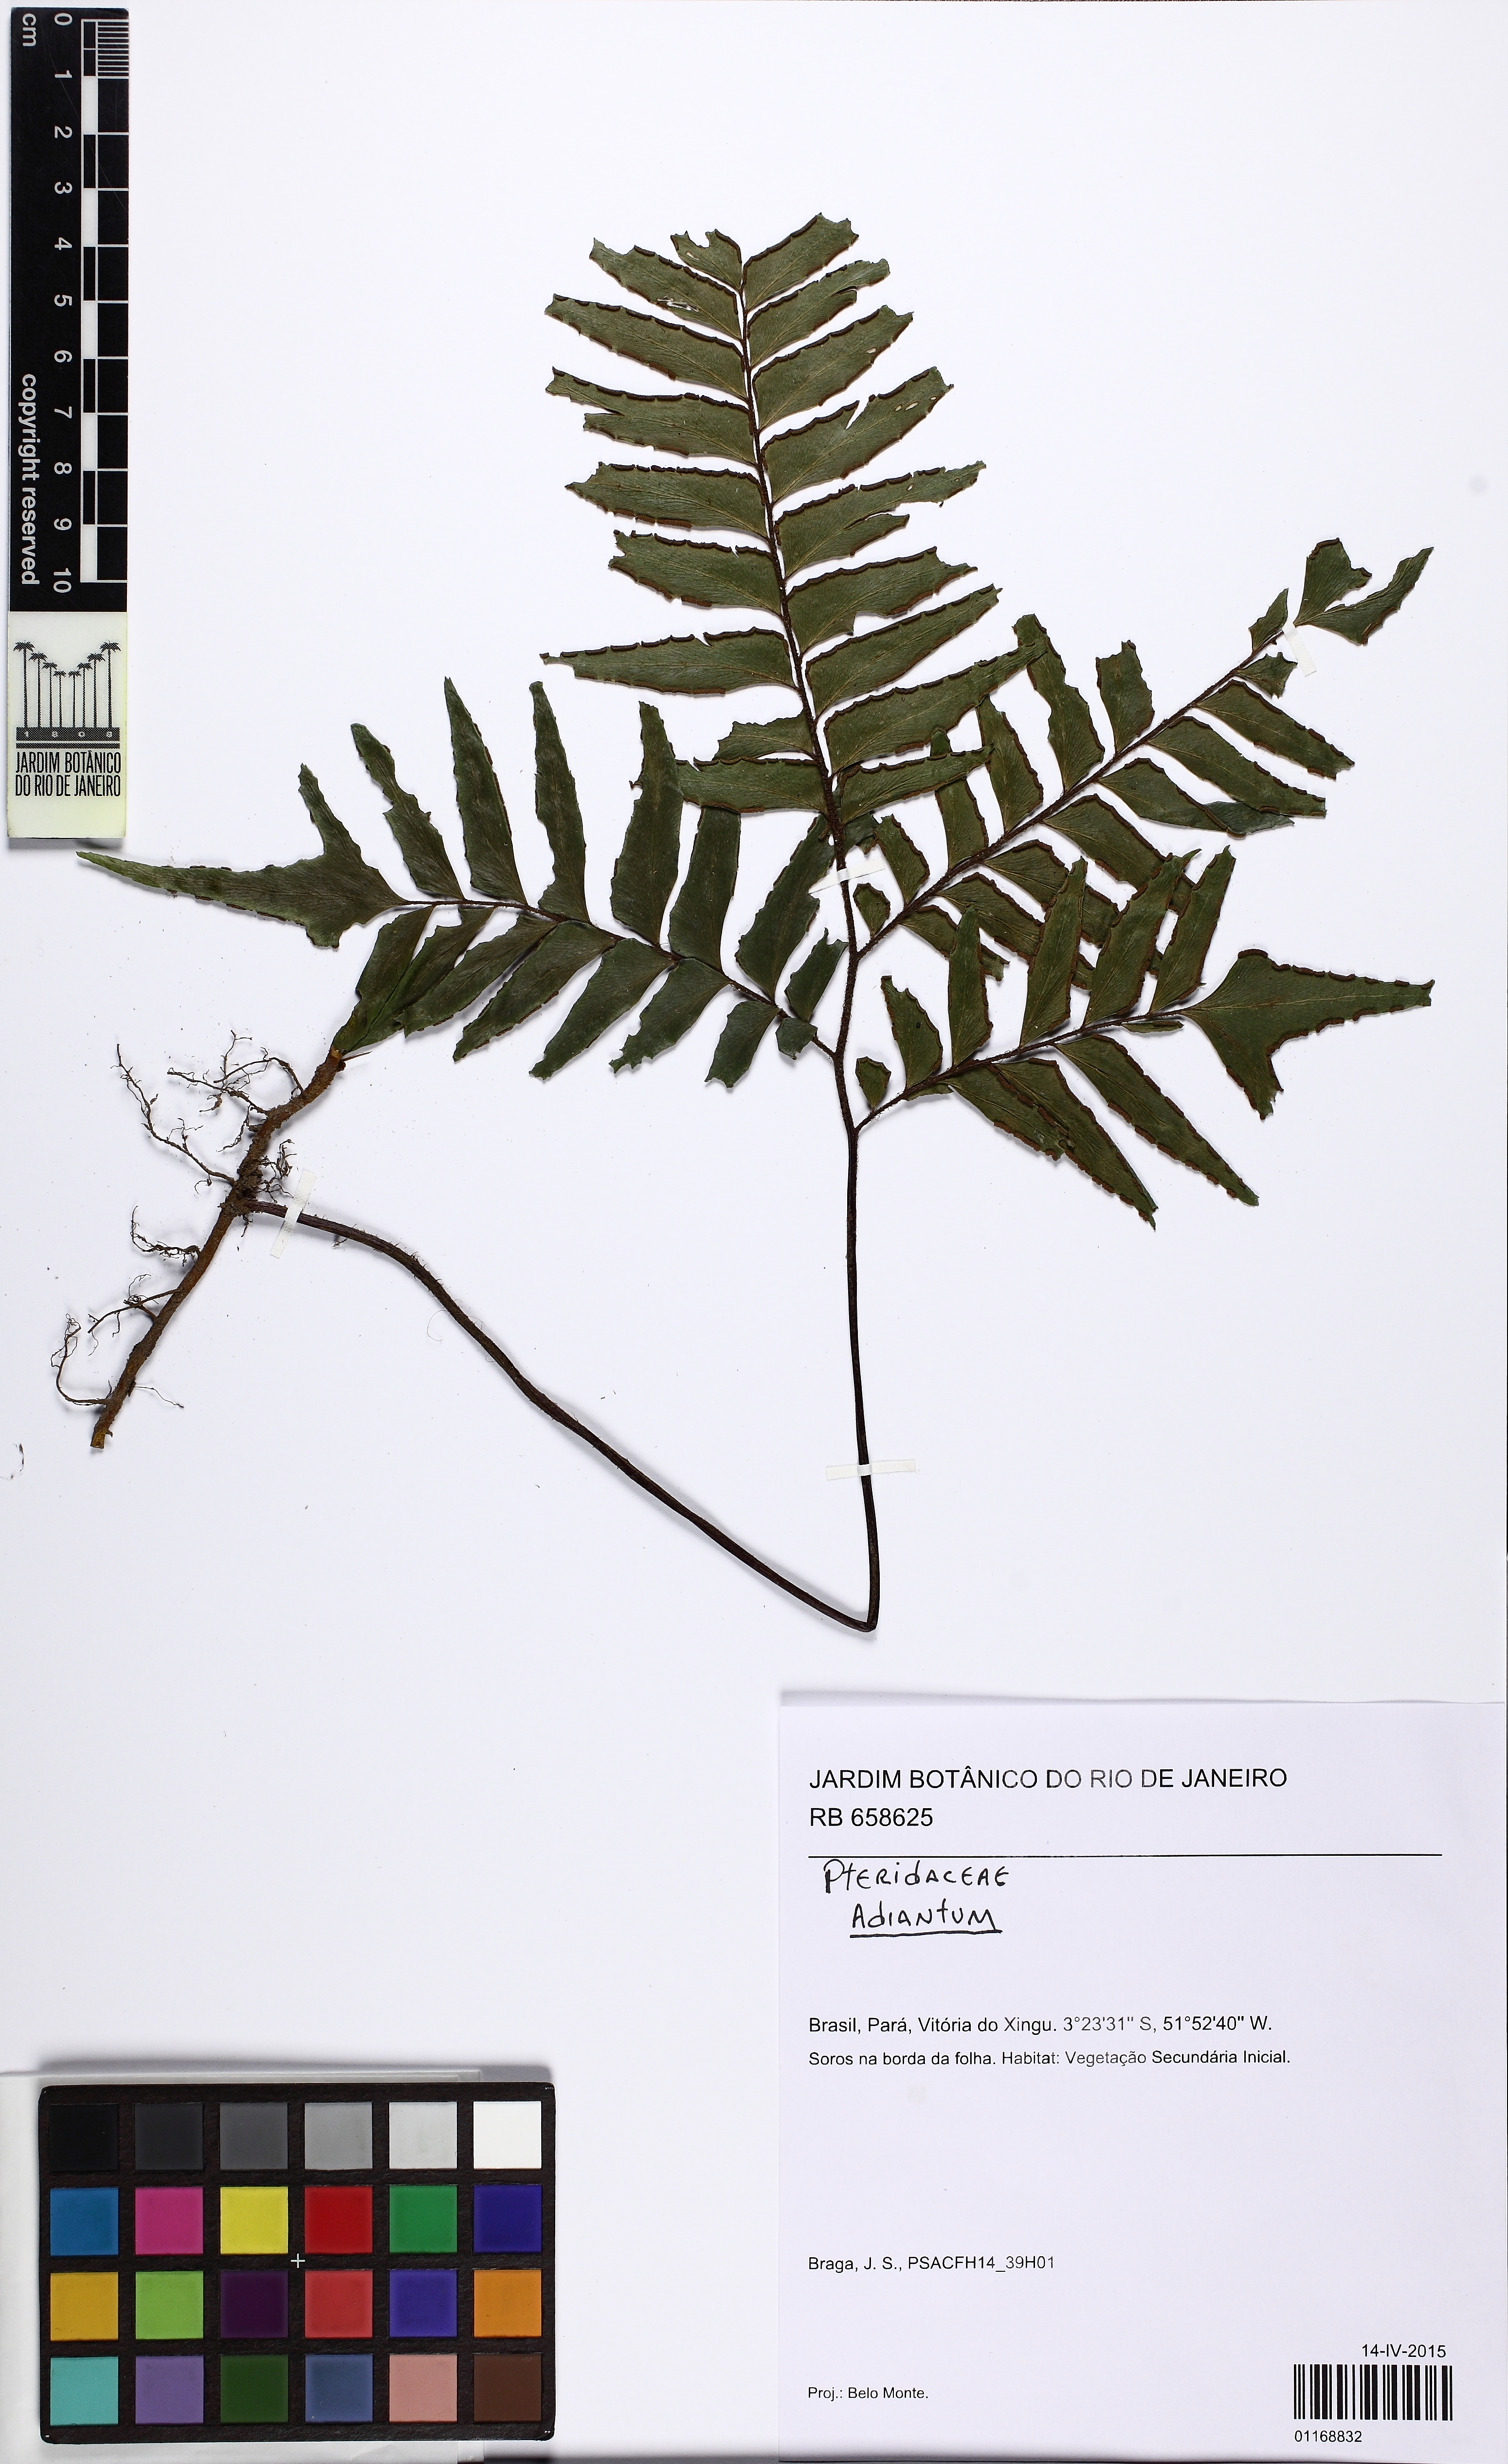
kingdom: Plantae
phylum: Tracheophyta
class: Polypodiopsida
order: Polypodiales
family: Pteridaceae
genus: Adiantum
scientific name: Adiantum
